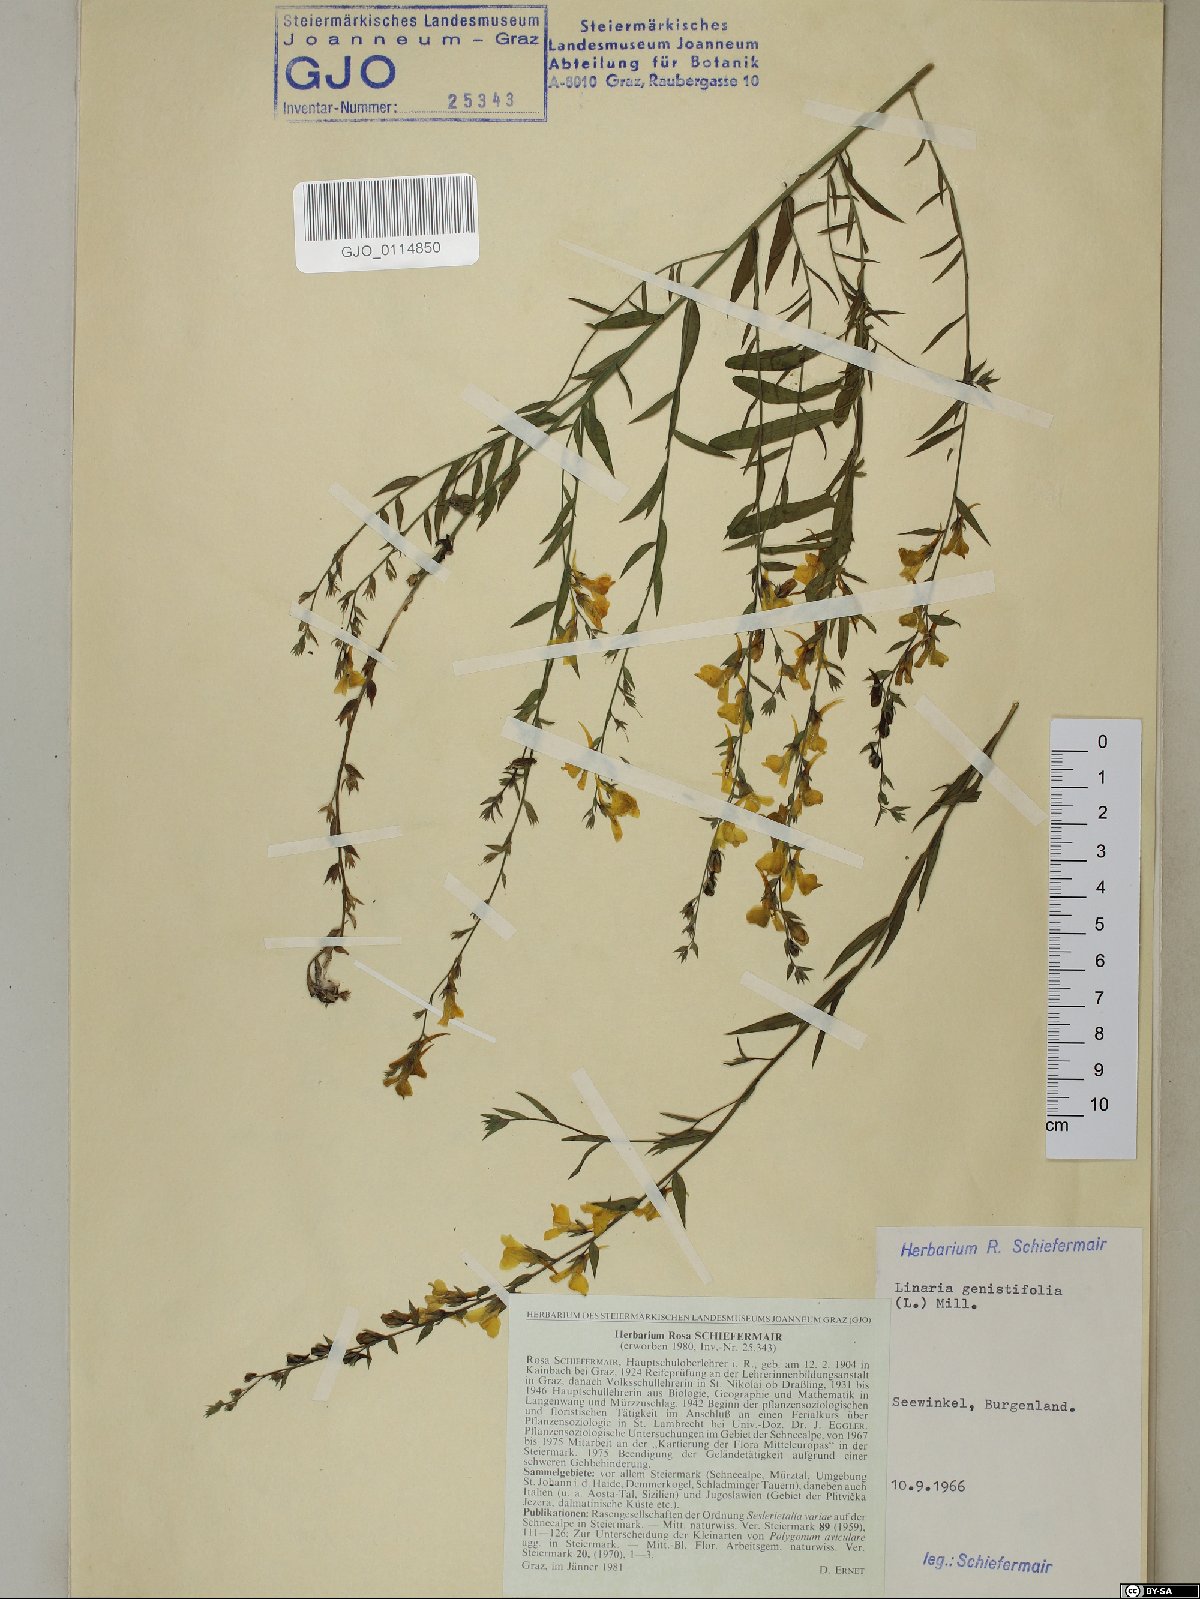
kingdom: Plantae
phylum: Tracheophyta
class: Magnoliopsida
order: Lamiales
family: Plantaginaceae
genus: Linaria
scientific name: Linaria genistifolia
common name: Broomleaf toadflax
